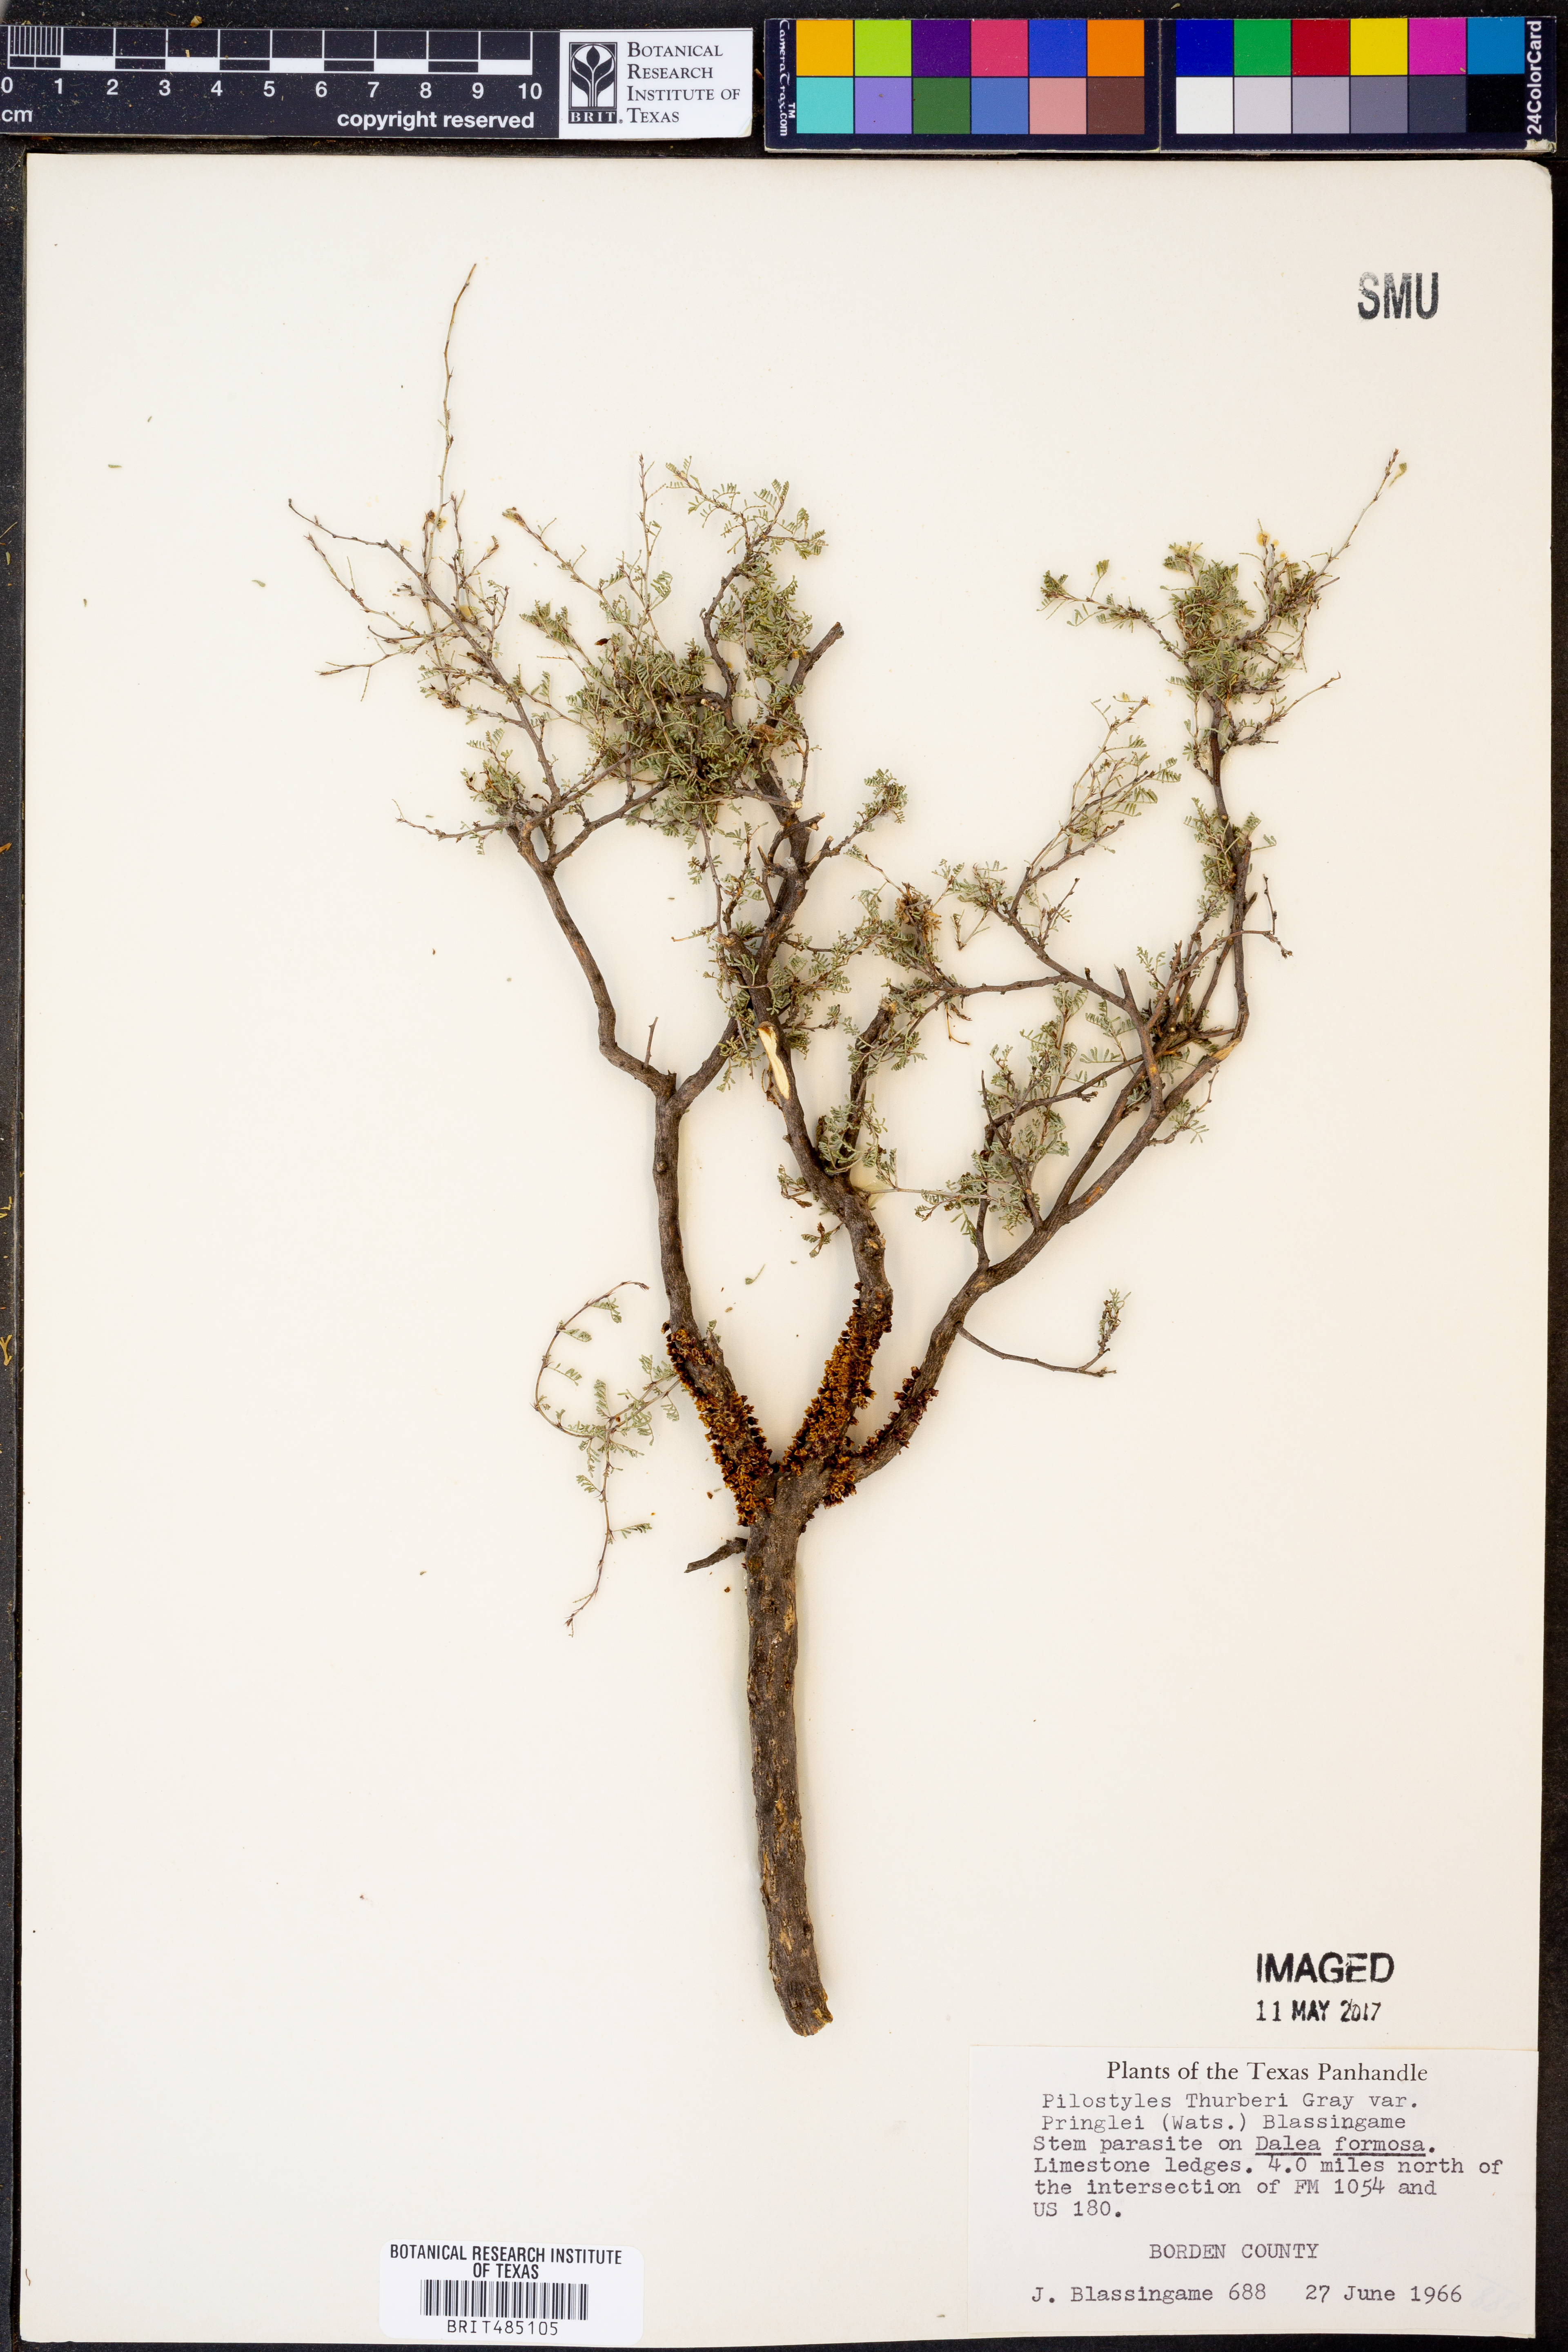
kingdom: Plantae
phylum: Tracheophyta
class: Magnoliopsida
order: Cucurbitales
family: Apodanthaceae
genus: Pilostyles
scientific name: Pilostyles thurberi
